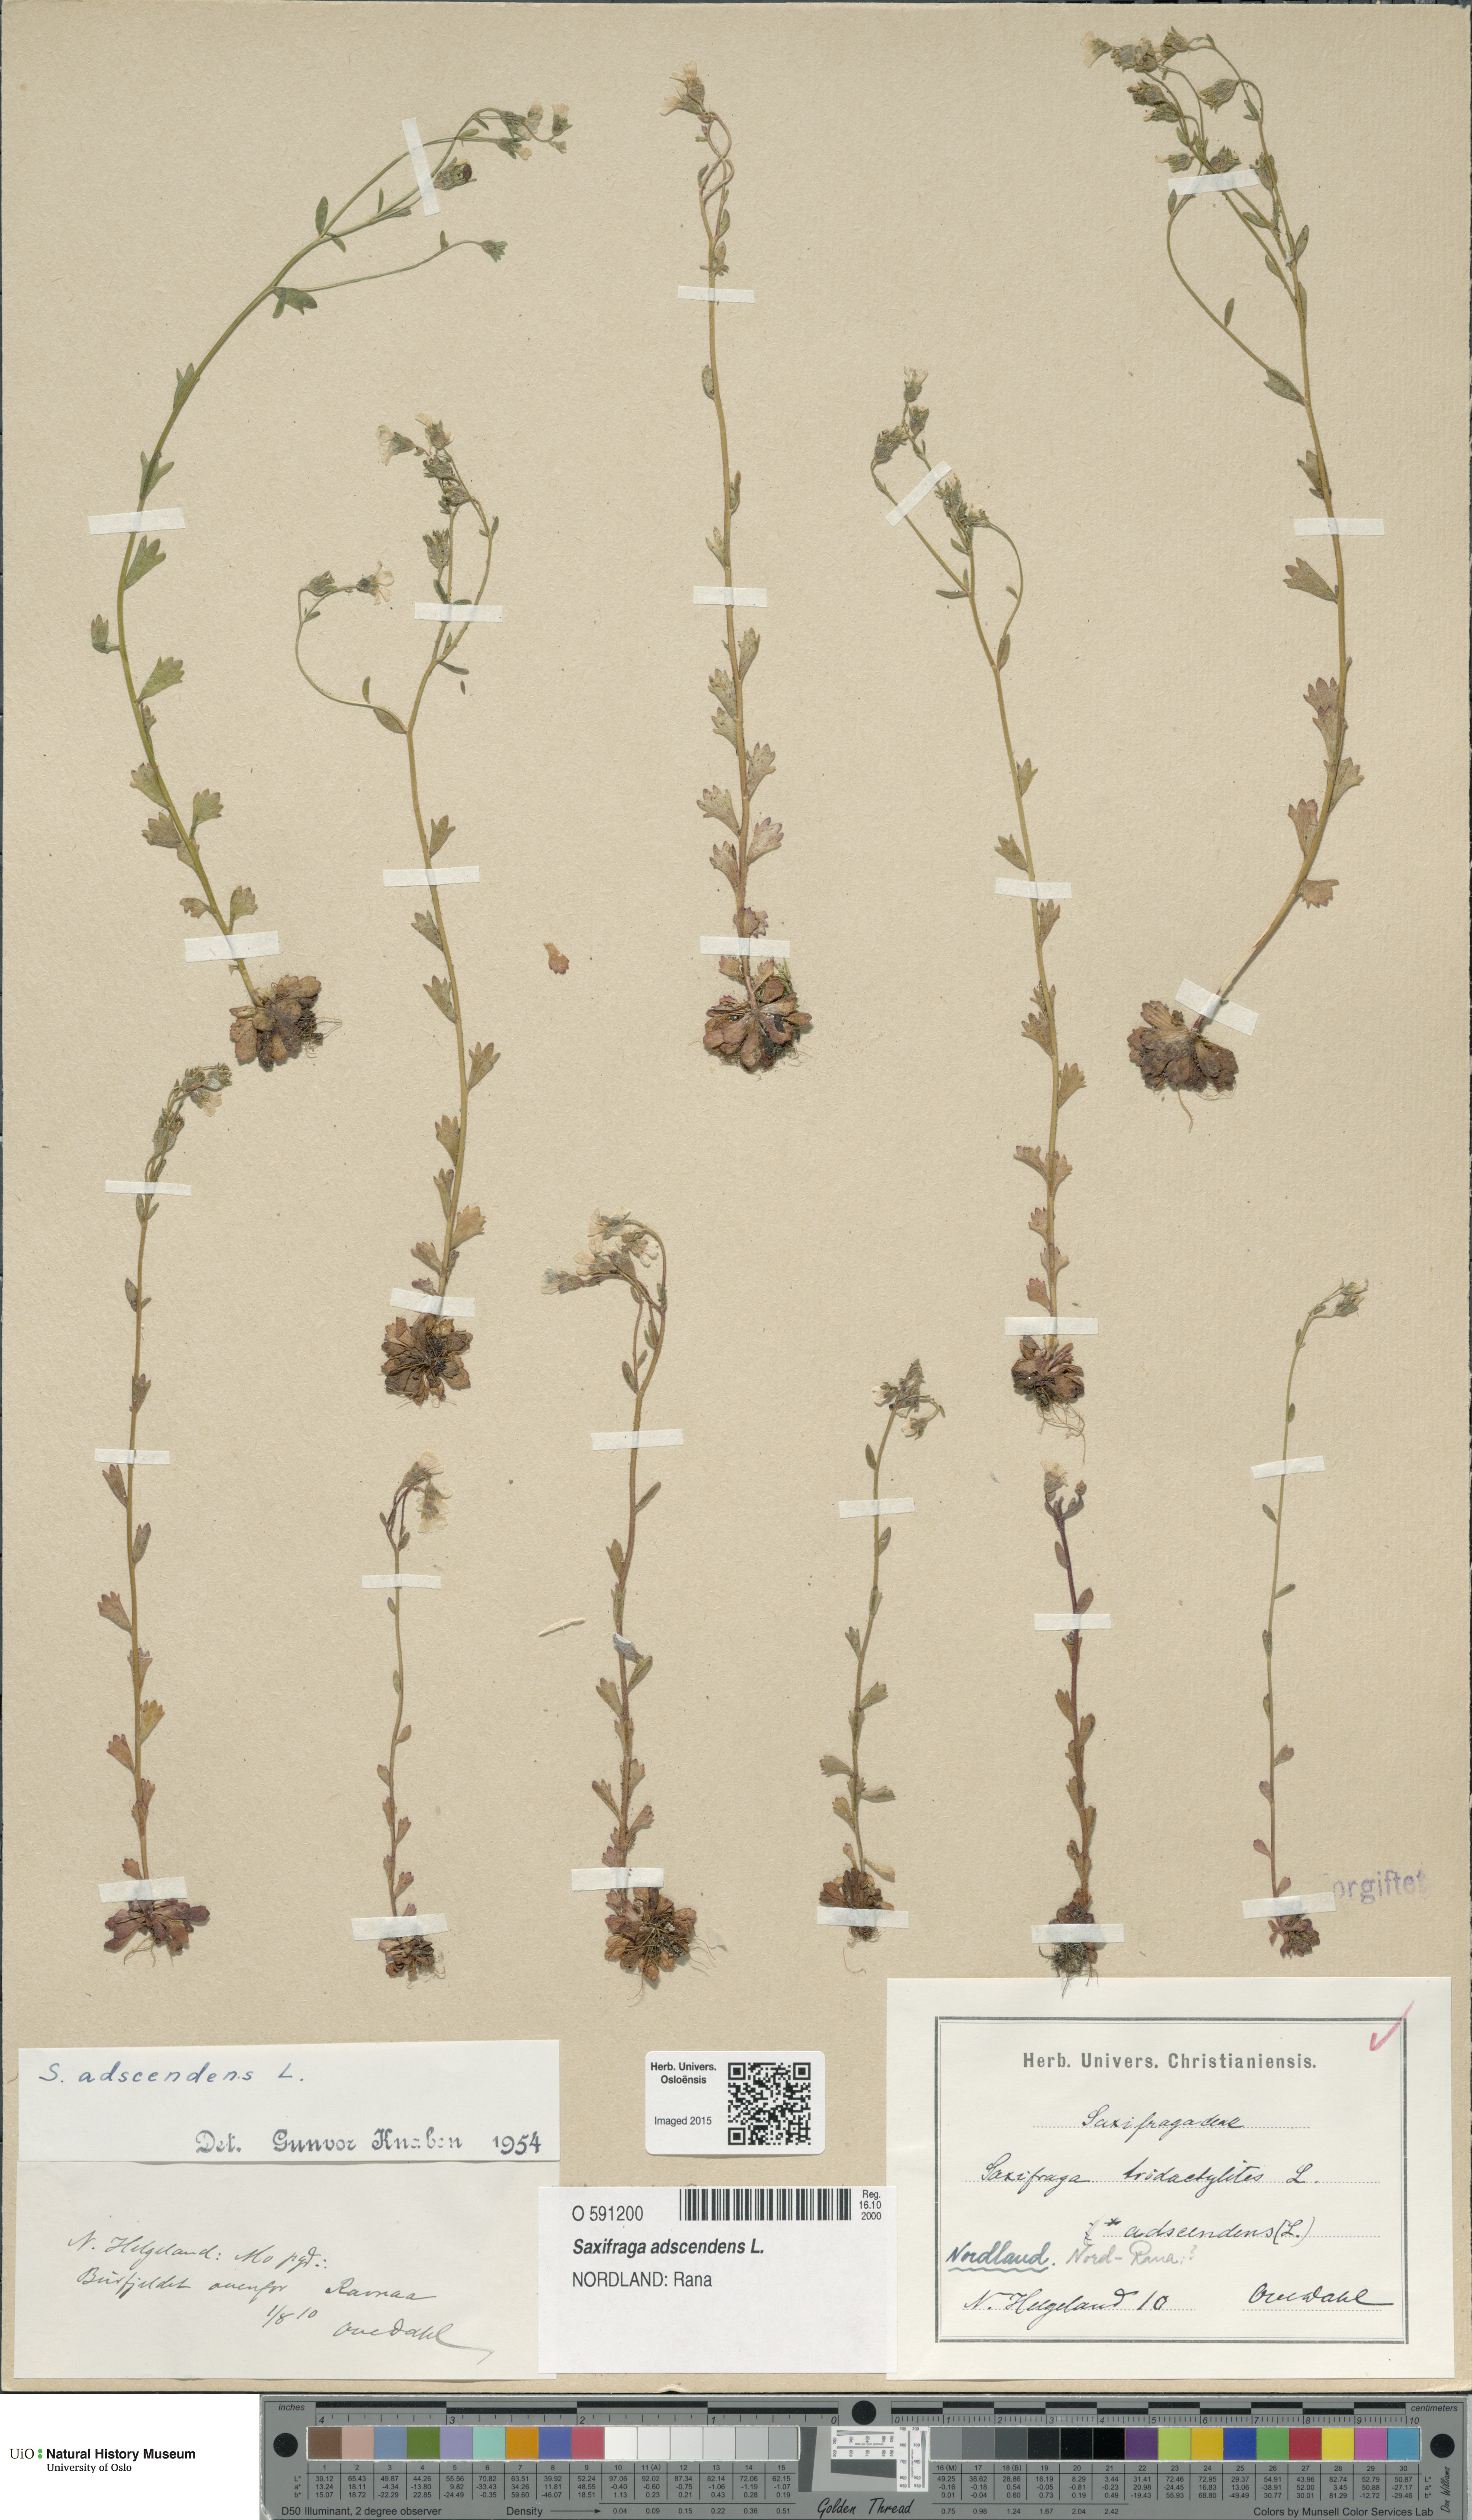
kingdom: Plantae
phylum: Tracheophyta
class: Magnoliopsida
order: Saxifragales
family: Saxifragaceae
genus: Saxifraga
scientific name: Saxifraga adscendens
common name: Ascending saxifrage
